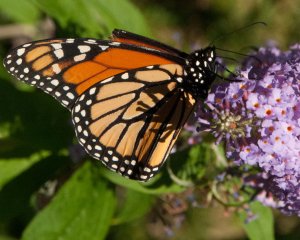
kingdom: Animalia
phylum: Arthropoda
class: Insecta
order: Lepidoptera
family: Nymphalidae
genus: Danaus
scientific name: Danaus plexippus
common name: Monarch
